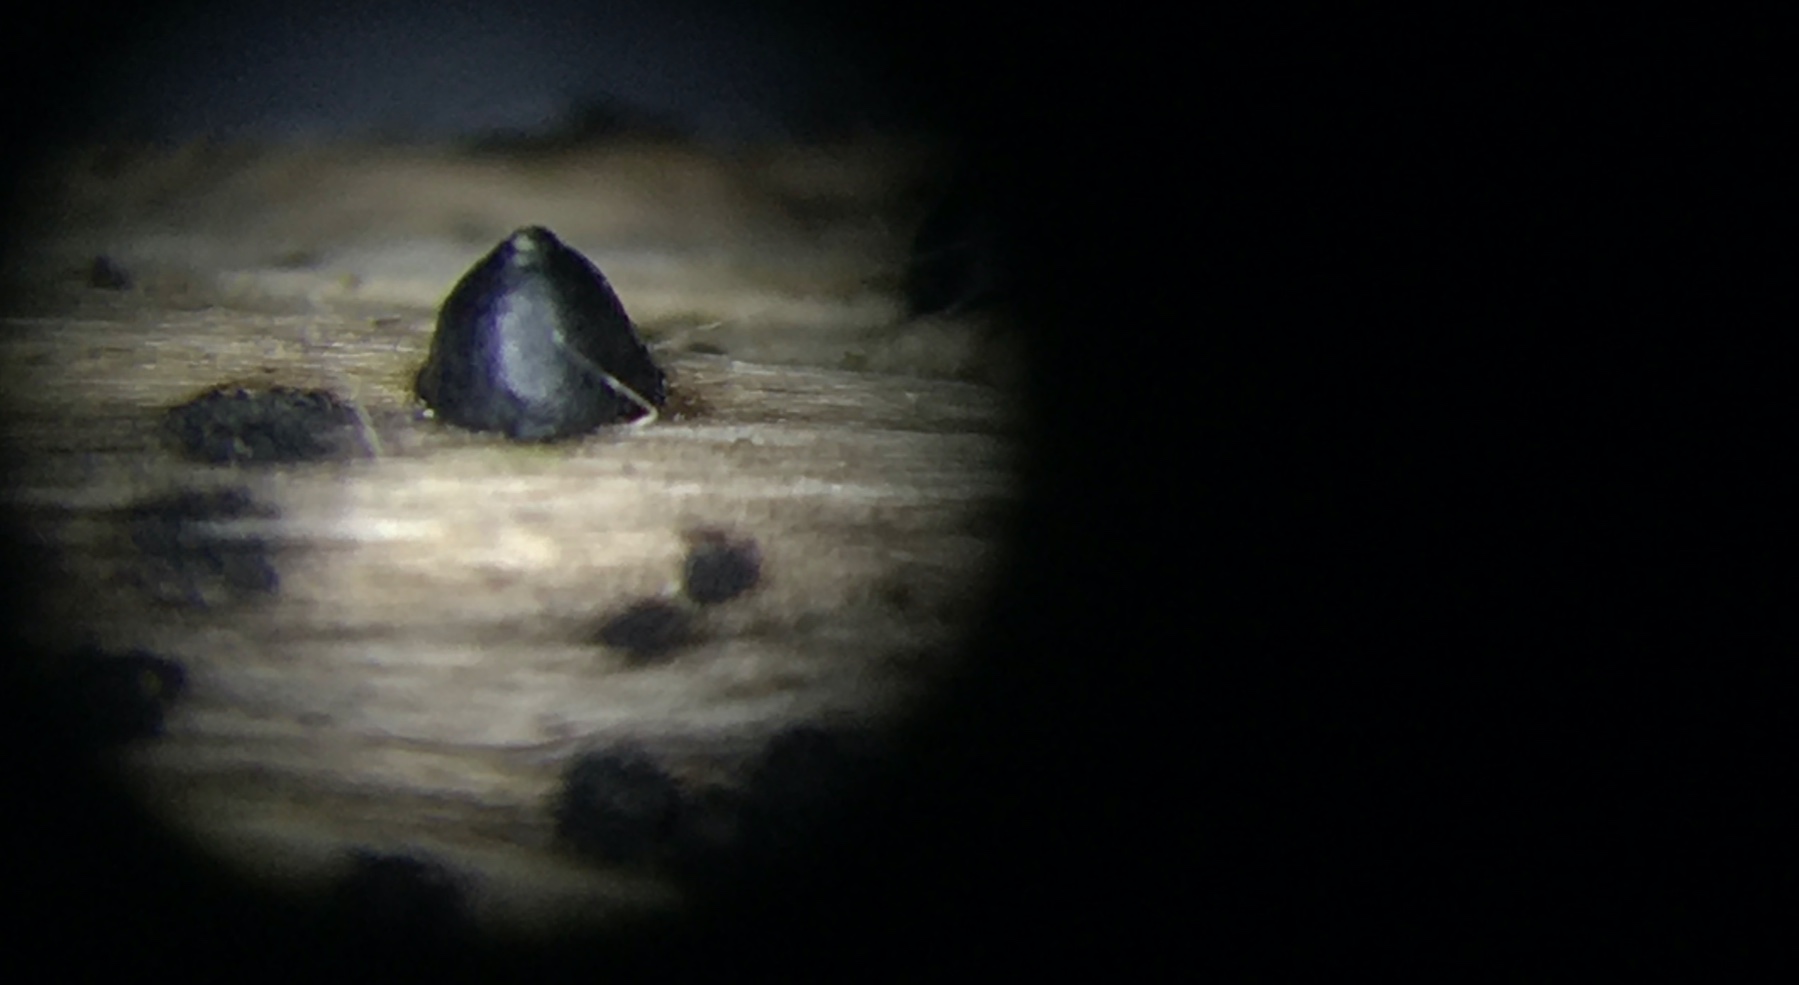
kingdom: Fungi
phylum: Ascomycota
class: Dothideomycetes
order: Pleosporales
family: Leptosphaeriaceae
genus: Leptosphaeria
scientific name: Leptosphaeria acuta
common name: spids kulkegle
